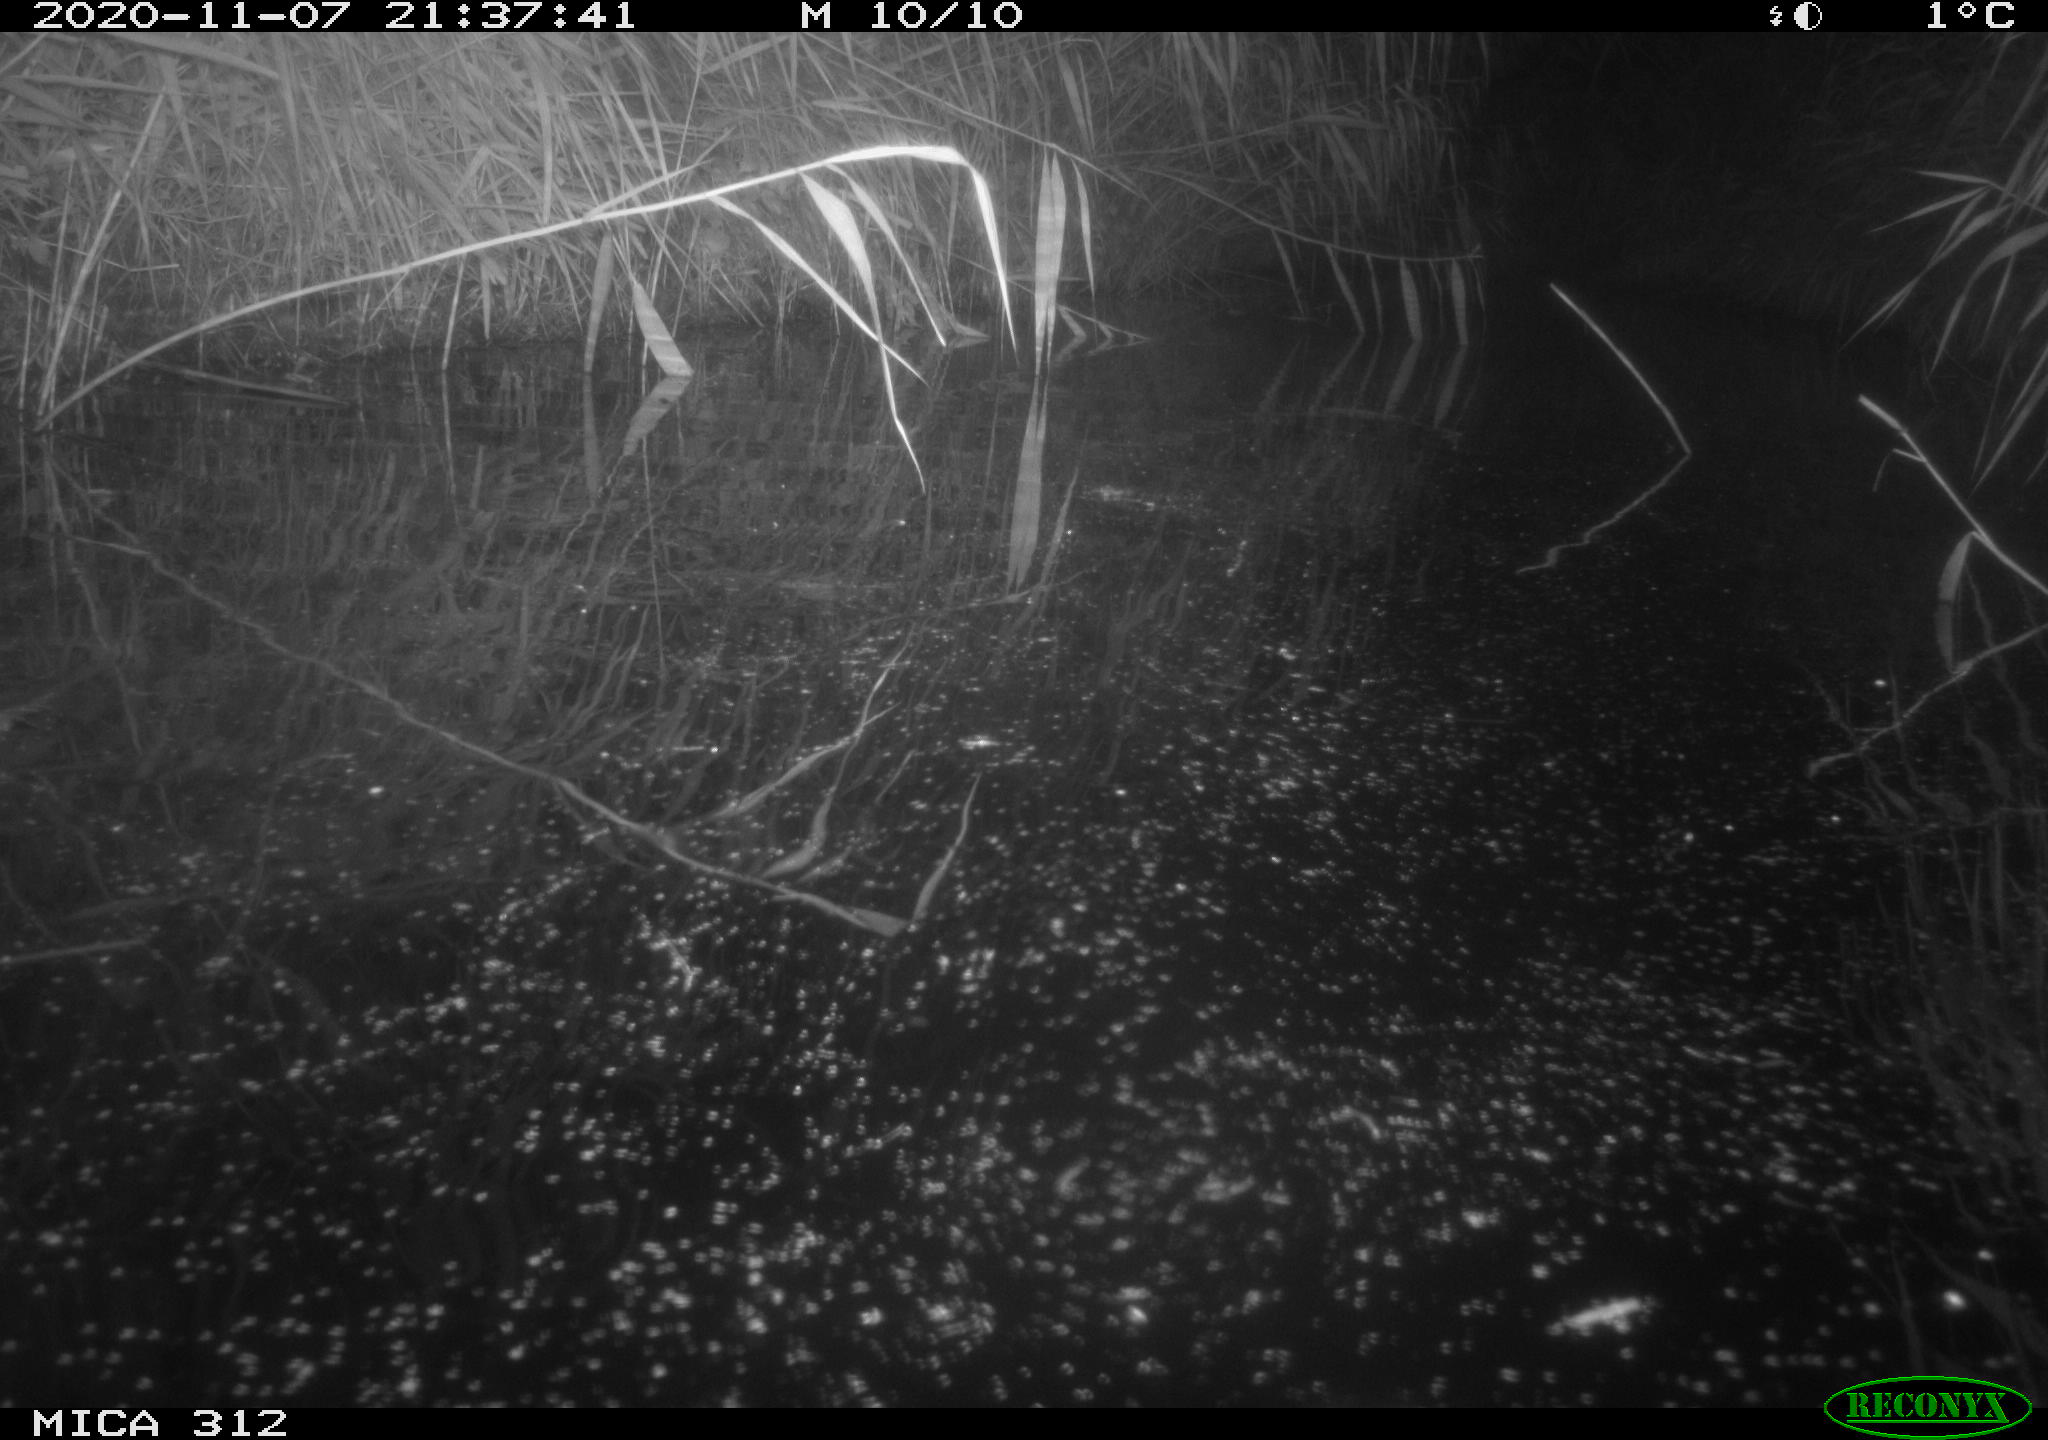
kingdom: Animalia
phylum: Chordata
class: Mammalia
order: Rodentia
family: Muridae
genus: Rattus
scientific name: Rattus norvegicus
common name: Brown rat
